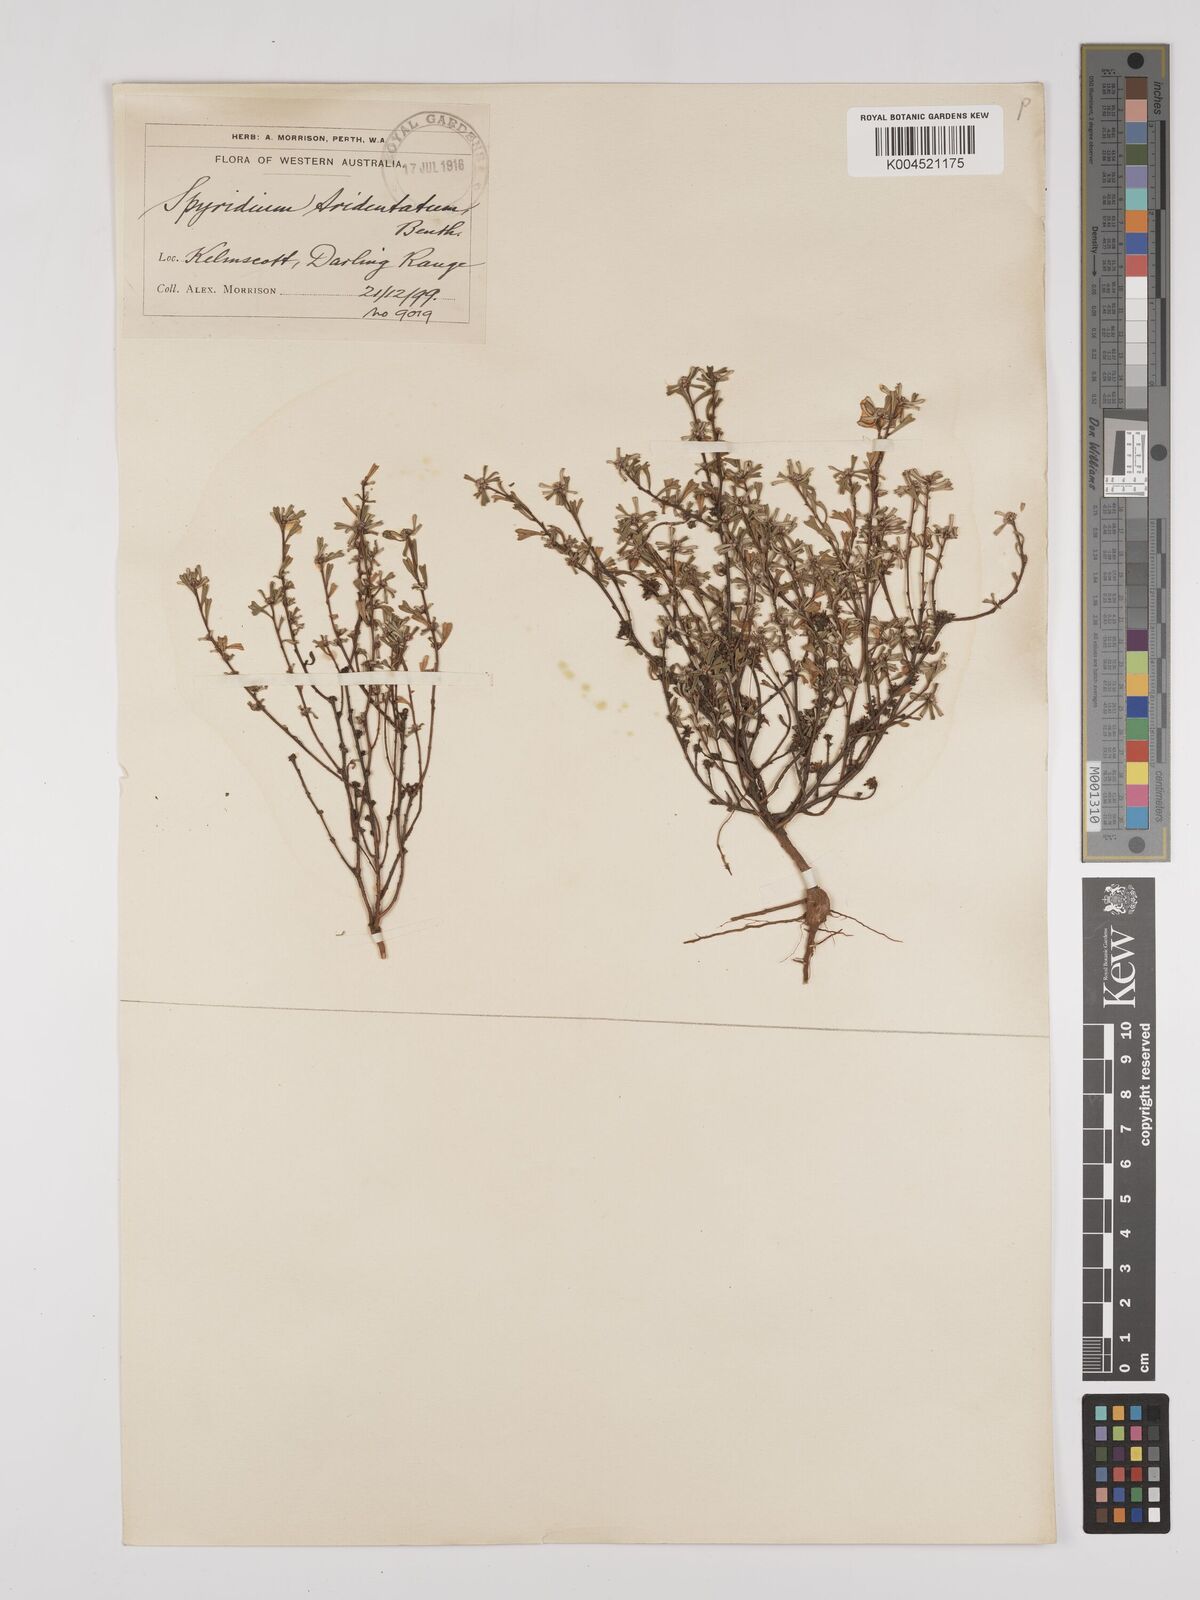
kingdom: Plantae
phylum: Tracheophyta
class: Magnoliopsida
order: Rosales
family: Rhamnaceae
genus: Stenanthemum
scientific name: Stenanthemum tridentatum
